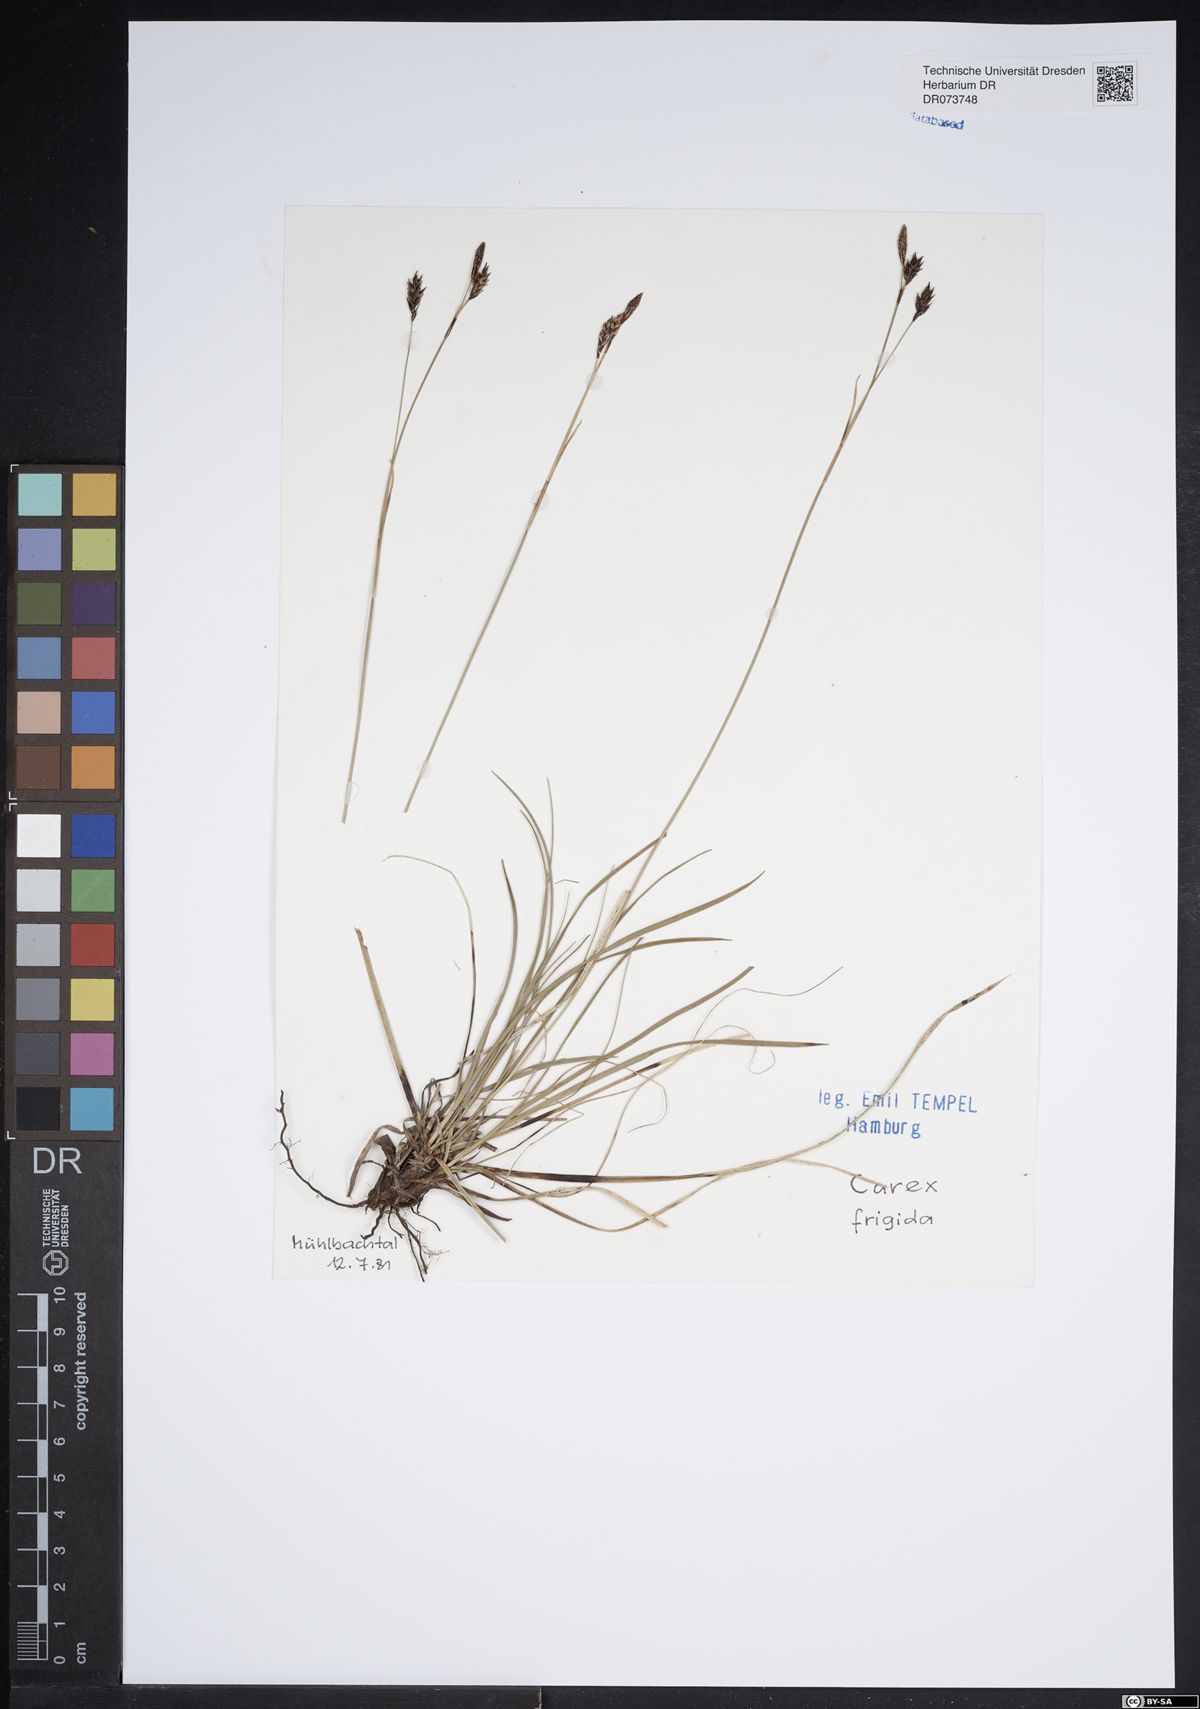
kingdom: Plantae
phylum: Tracheophyta
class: Liliopsida
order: Poales
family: Cyperaceae
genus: Carex
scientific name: Carex frigida
